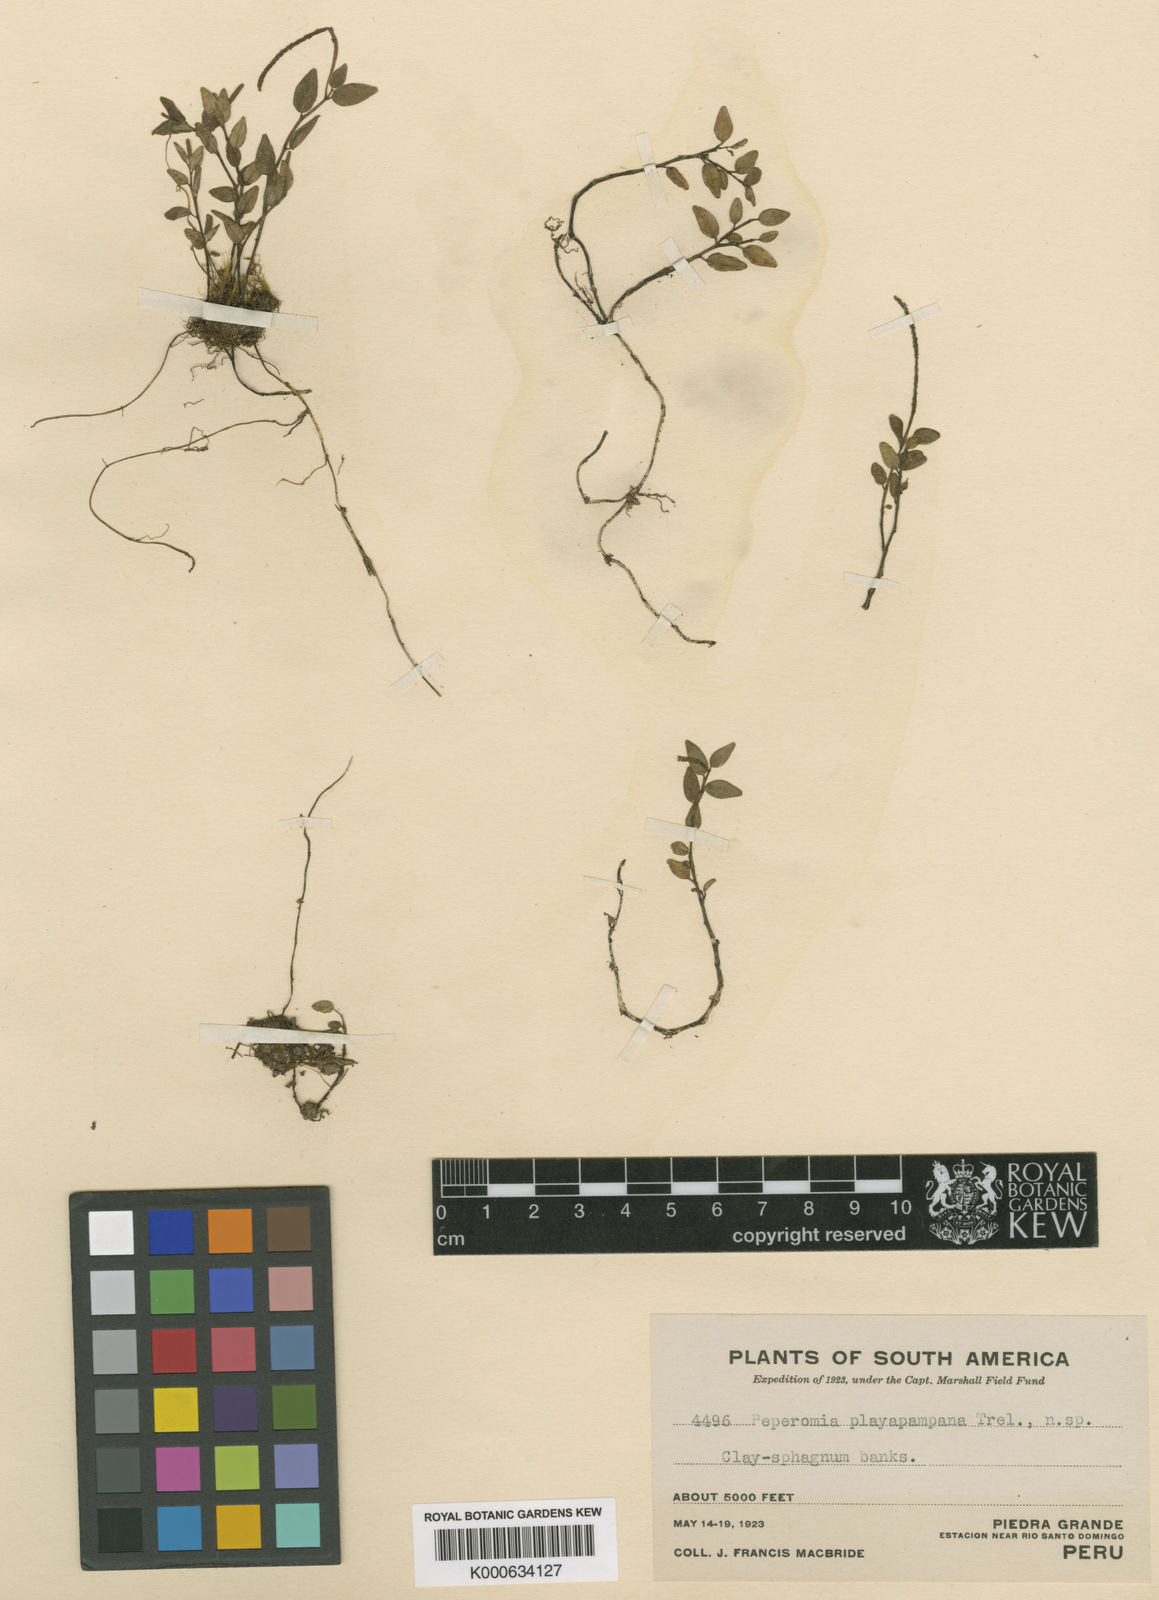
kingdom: Plantae
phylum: Tracheophyta
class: Magnoliopsida
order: Piperales
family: Piperaceae
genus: Peperomia
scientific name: Peperomia playapampana
